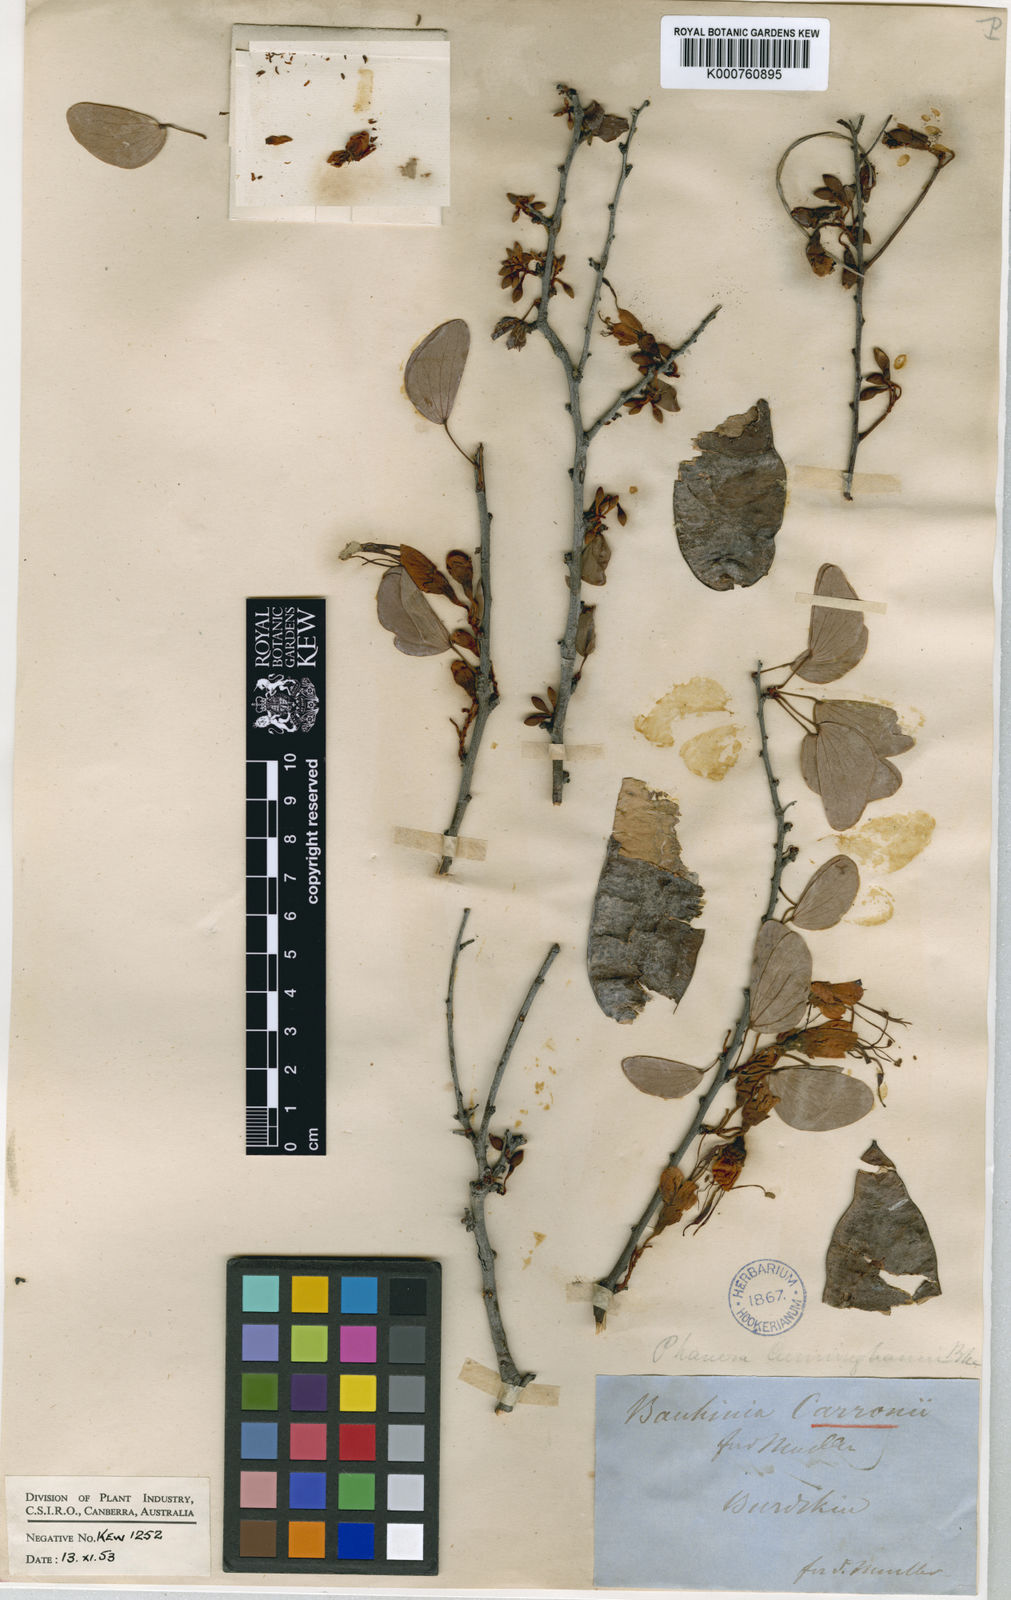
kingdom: Plantae
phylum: Tracheophyta
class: Magnoliopsida
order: Fabales
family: Fabaceae
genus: Lysiphyllum
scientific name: Lysiphyllum carronii
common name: Carron's bauhinia
